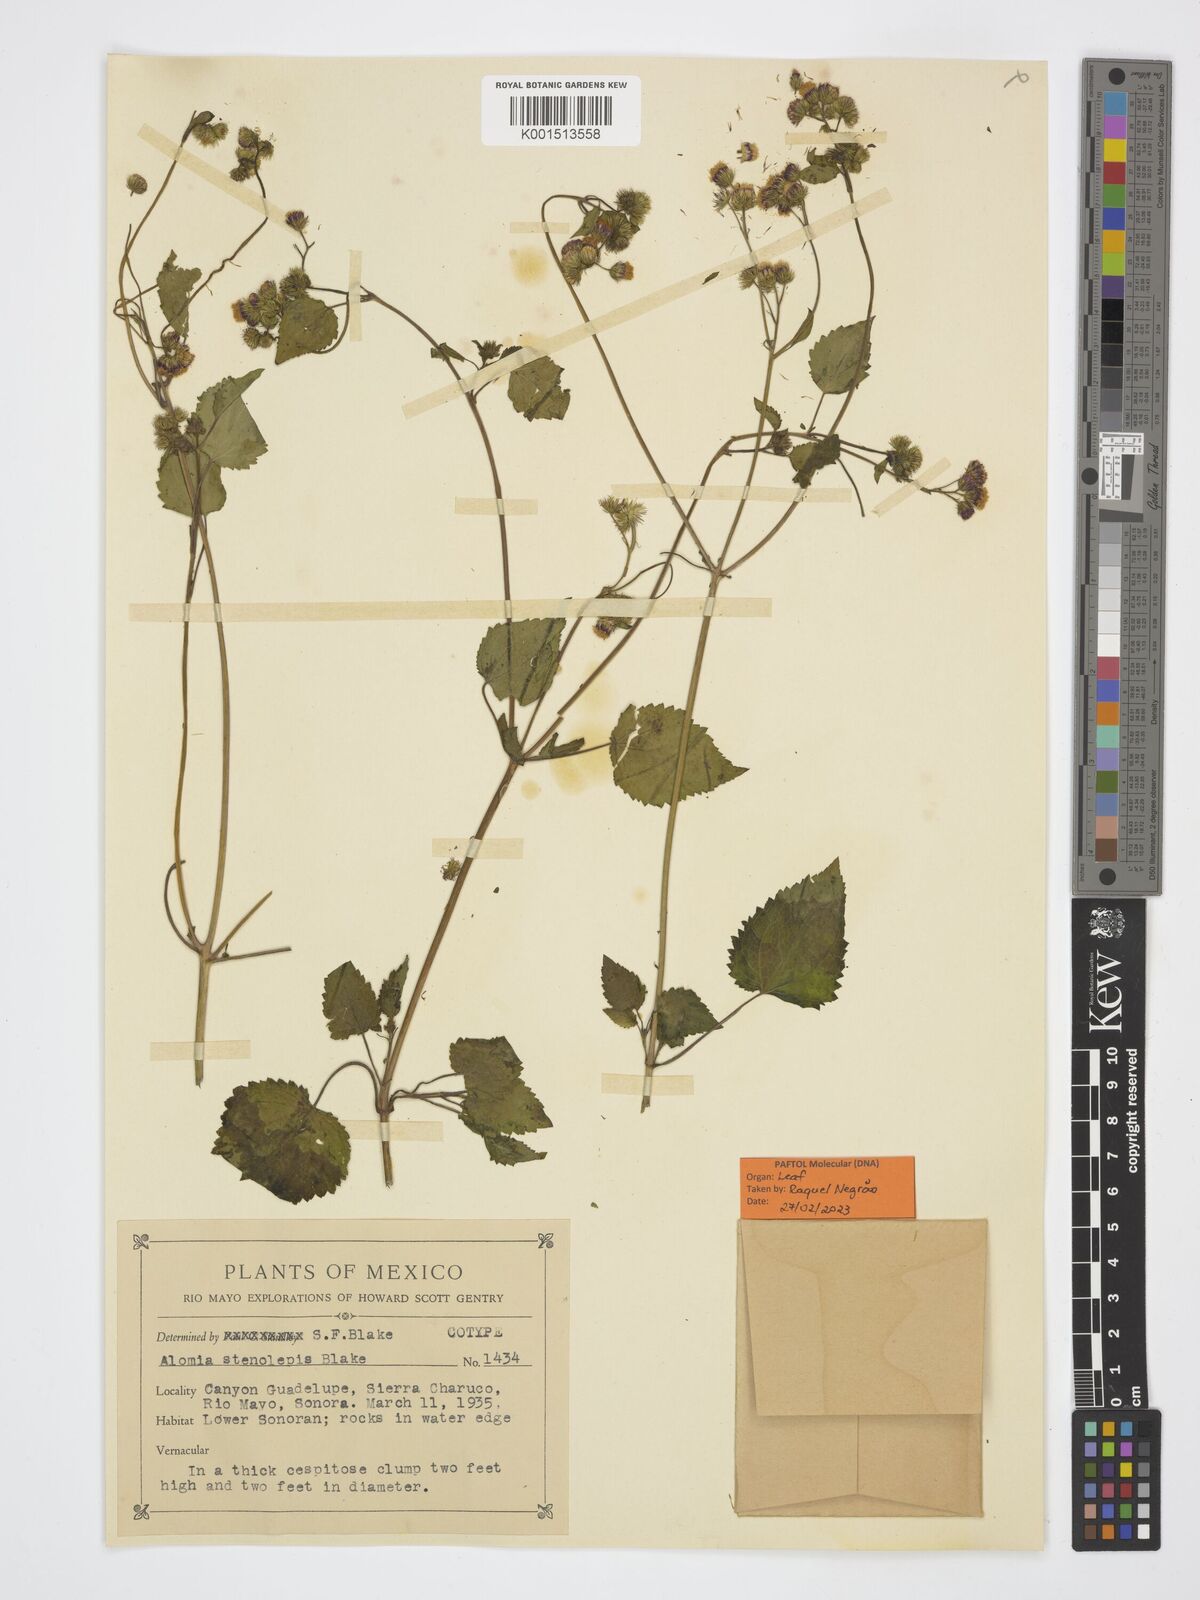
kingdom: Plantae
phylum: Tracheophyta
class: Magnoliopsida
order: Asterales
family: Asteraceae
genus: Alomia
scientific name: Alomia stenolepis
